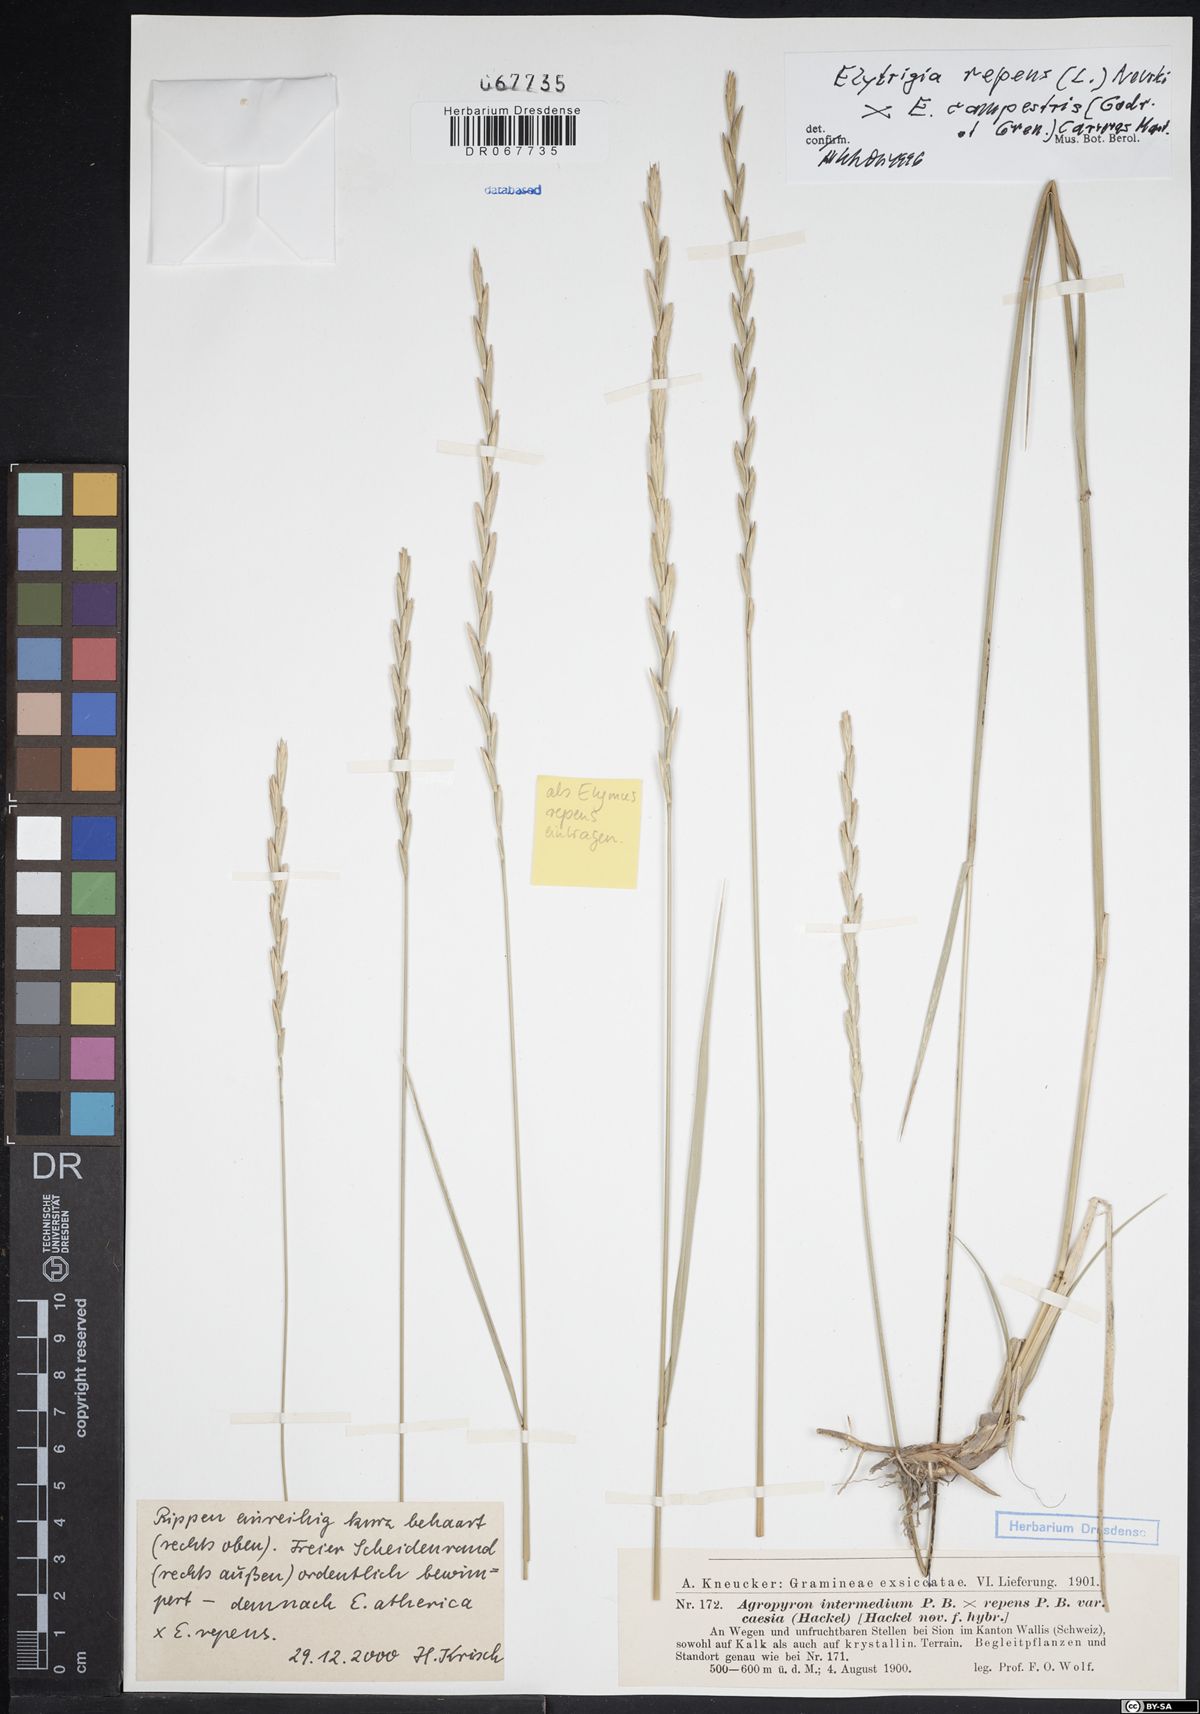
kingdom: Plantae
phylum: Tracheophyta
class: Liliopsida
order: Poales
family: Poaceae
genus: Elymus
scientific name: Elymus repens
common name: Quackgrass
